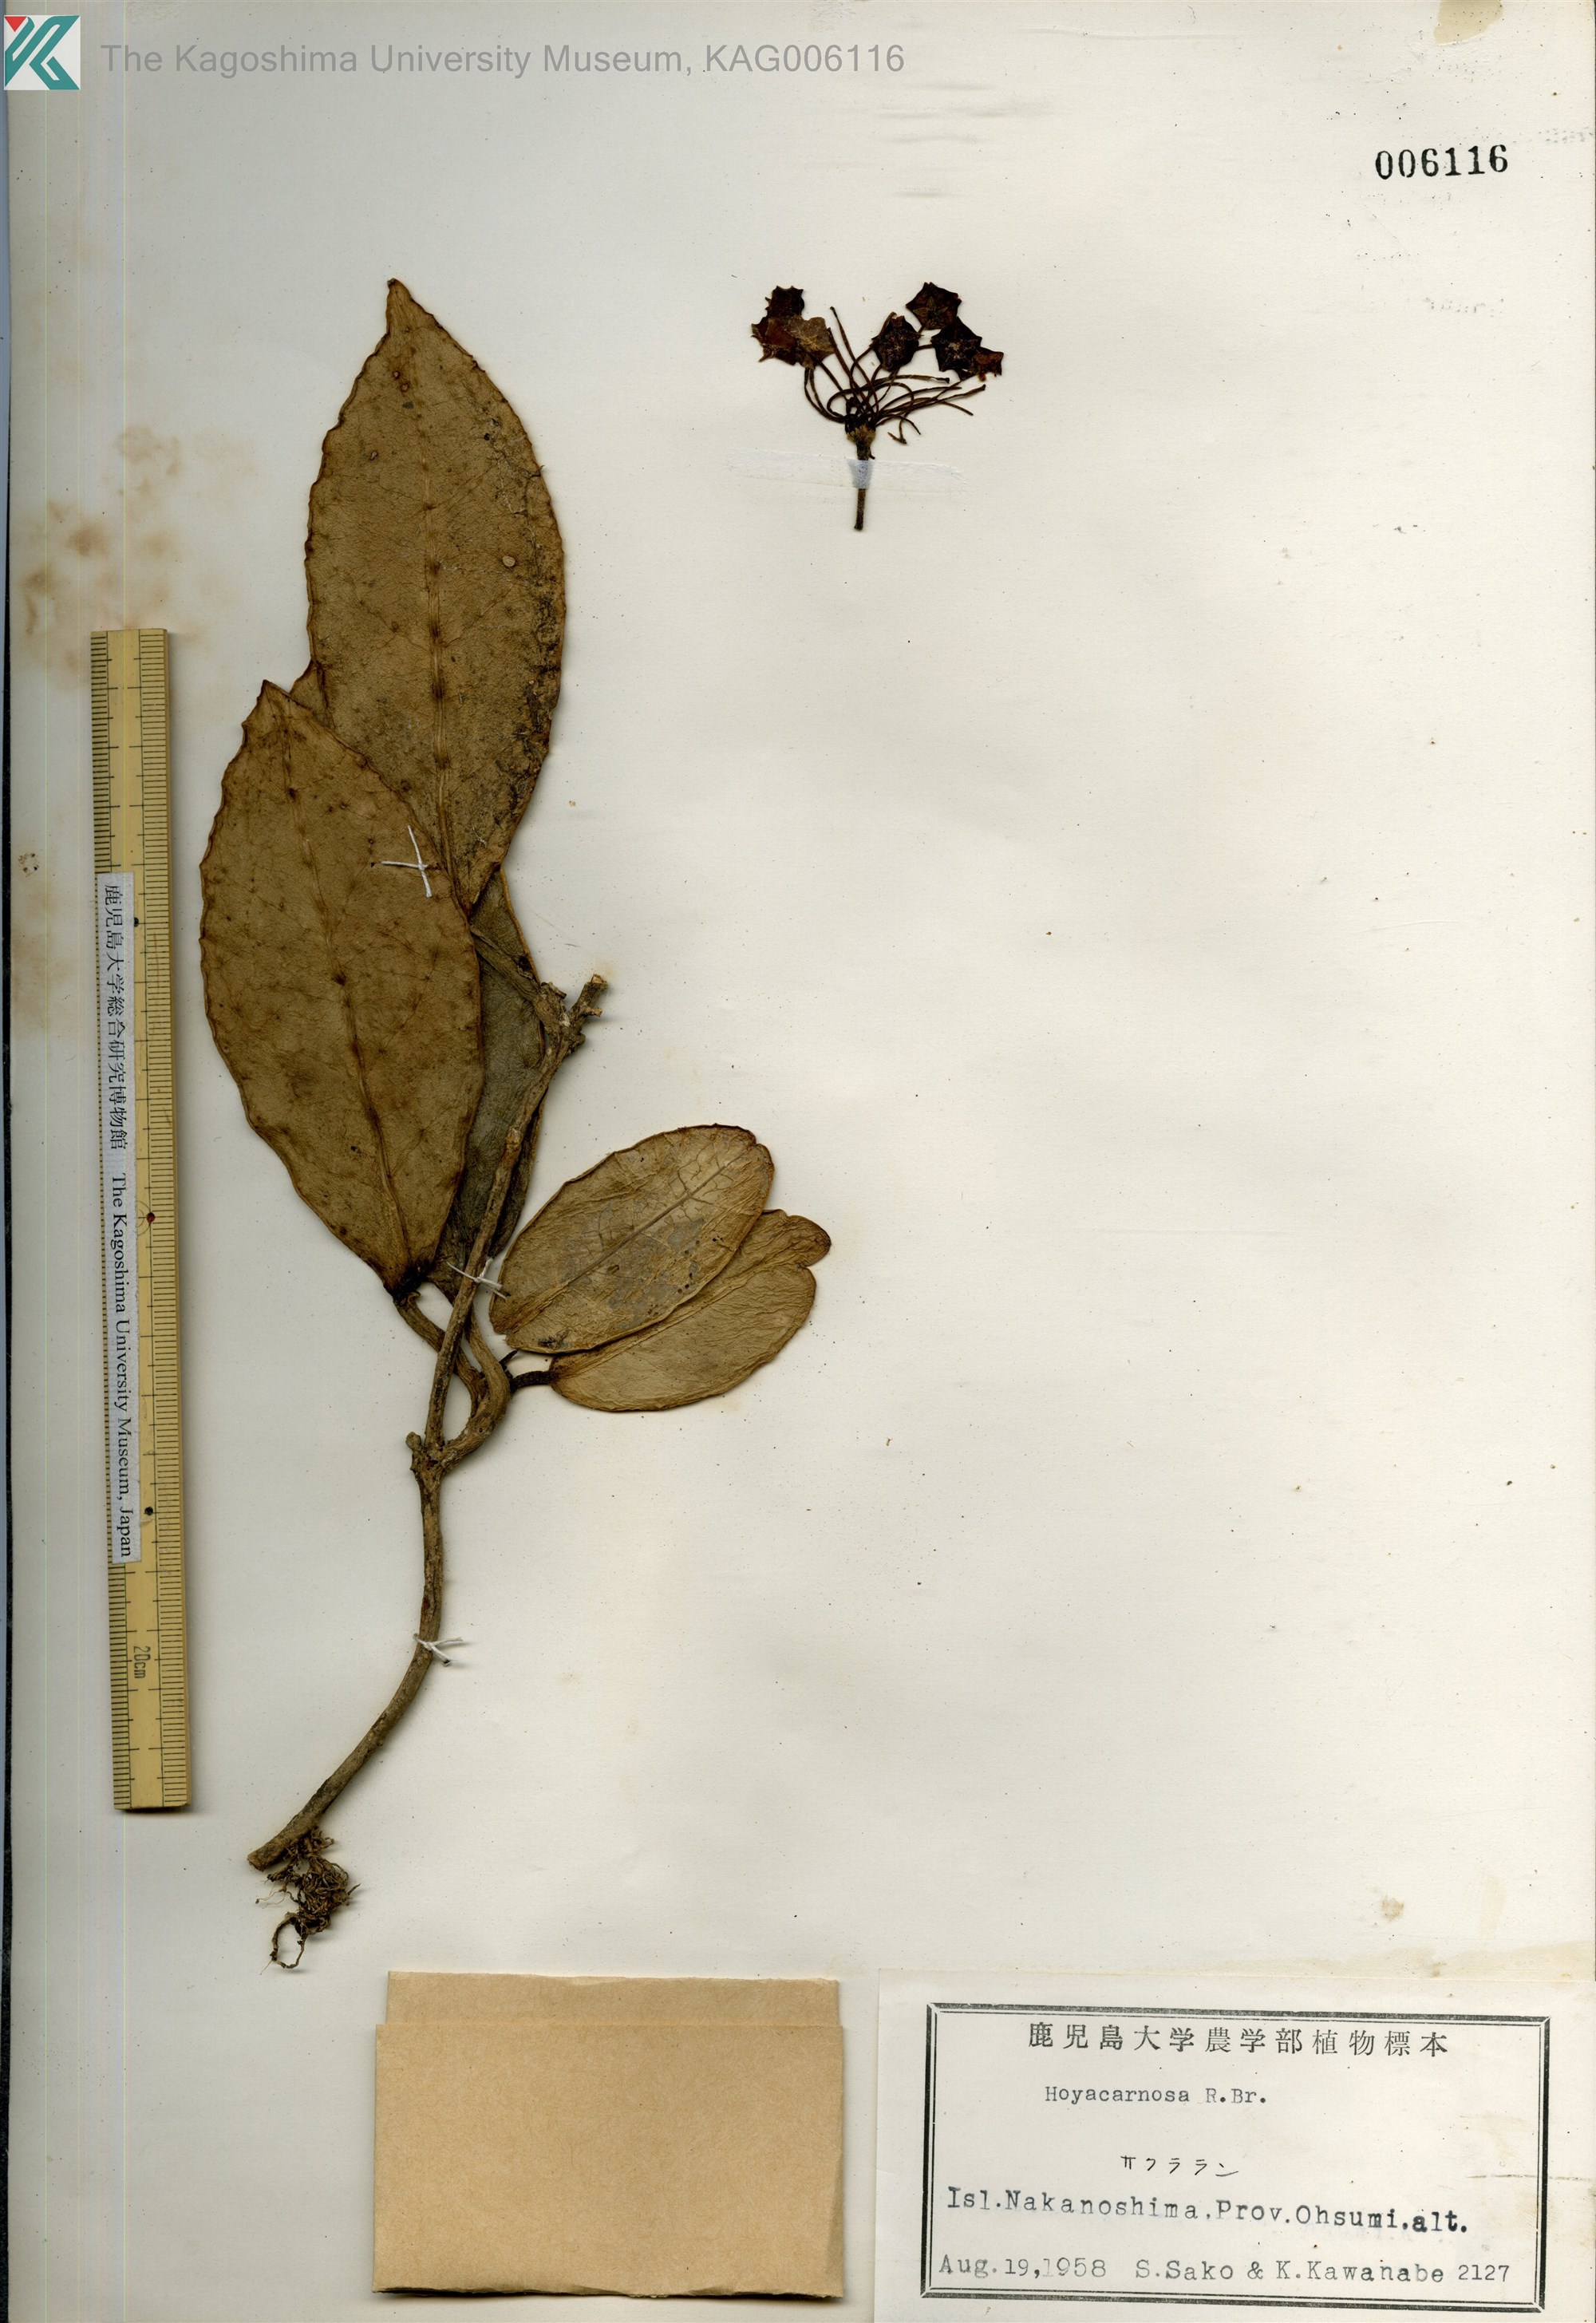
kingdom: Plantae
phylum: Tracheophyta
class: Magnoliopsida
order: Gentianales
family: Apocynaceae
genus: Hoya
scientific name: Hoya carnosa
